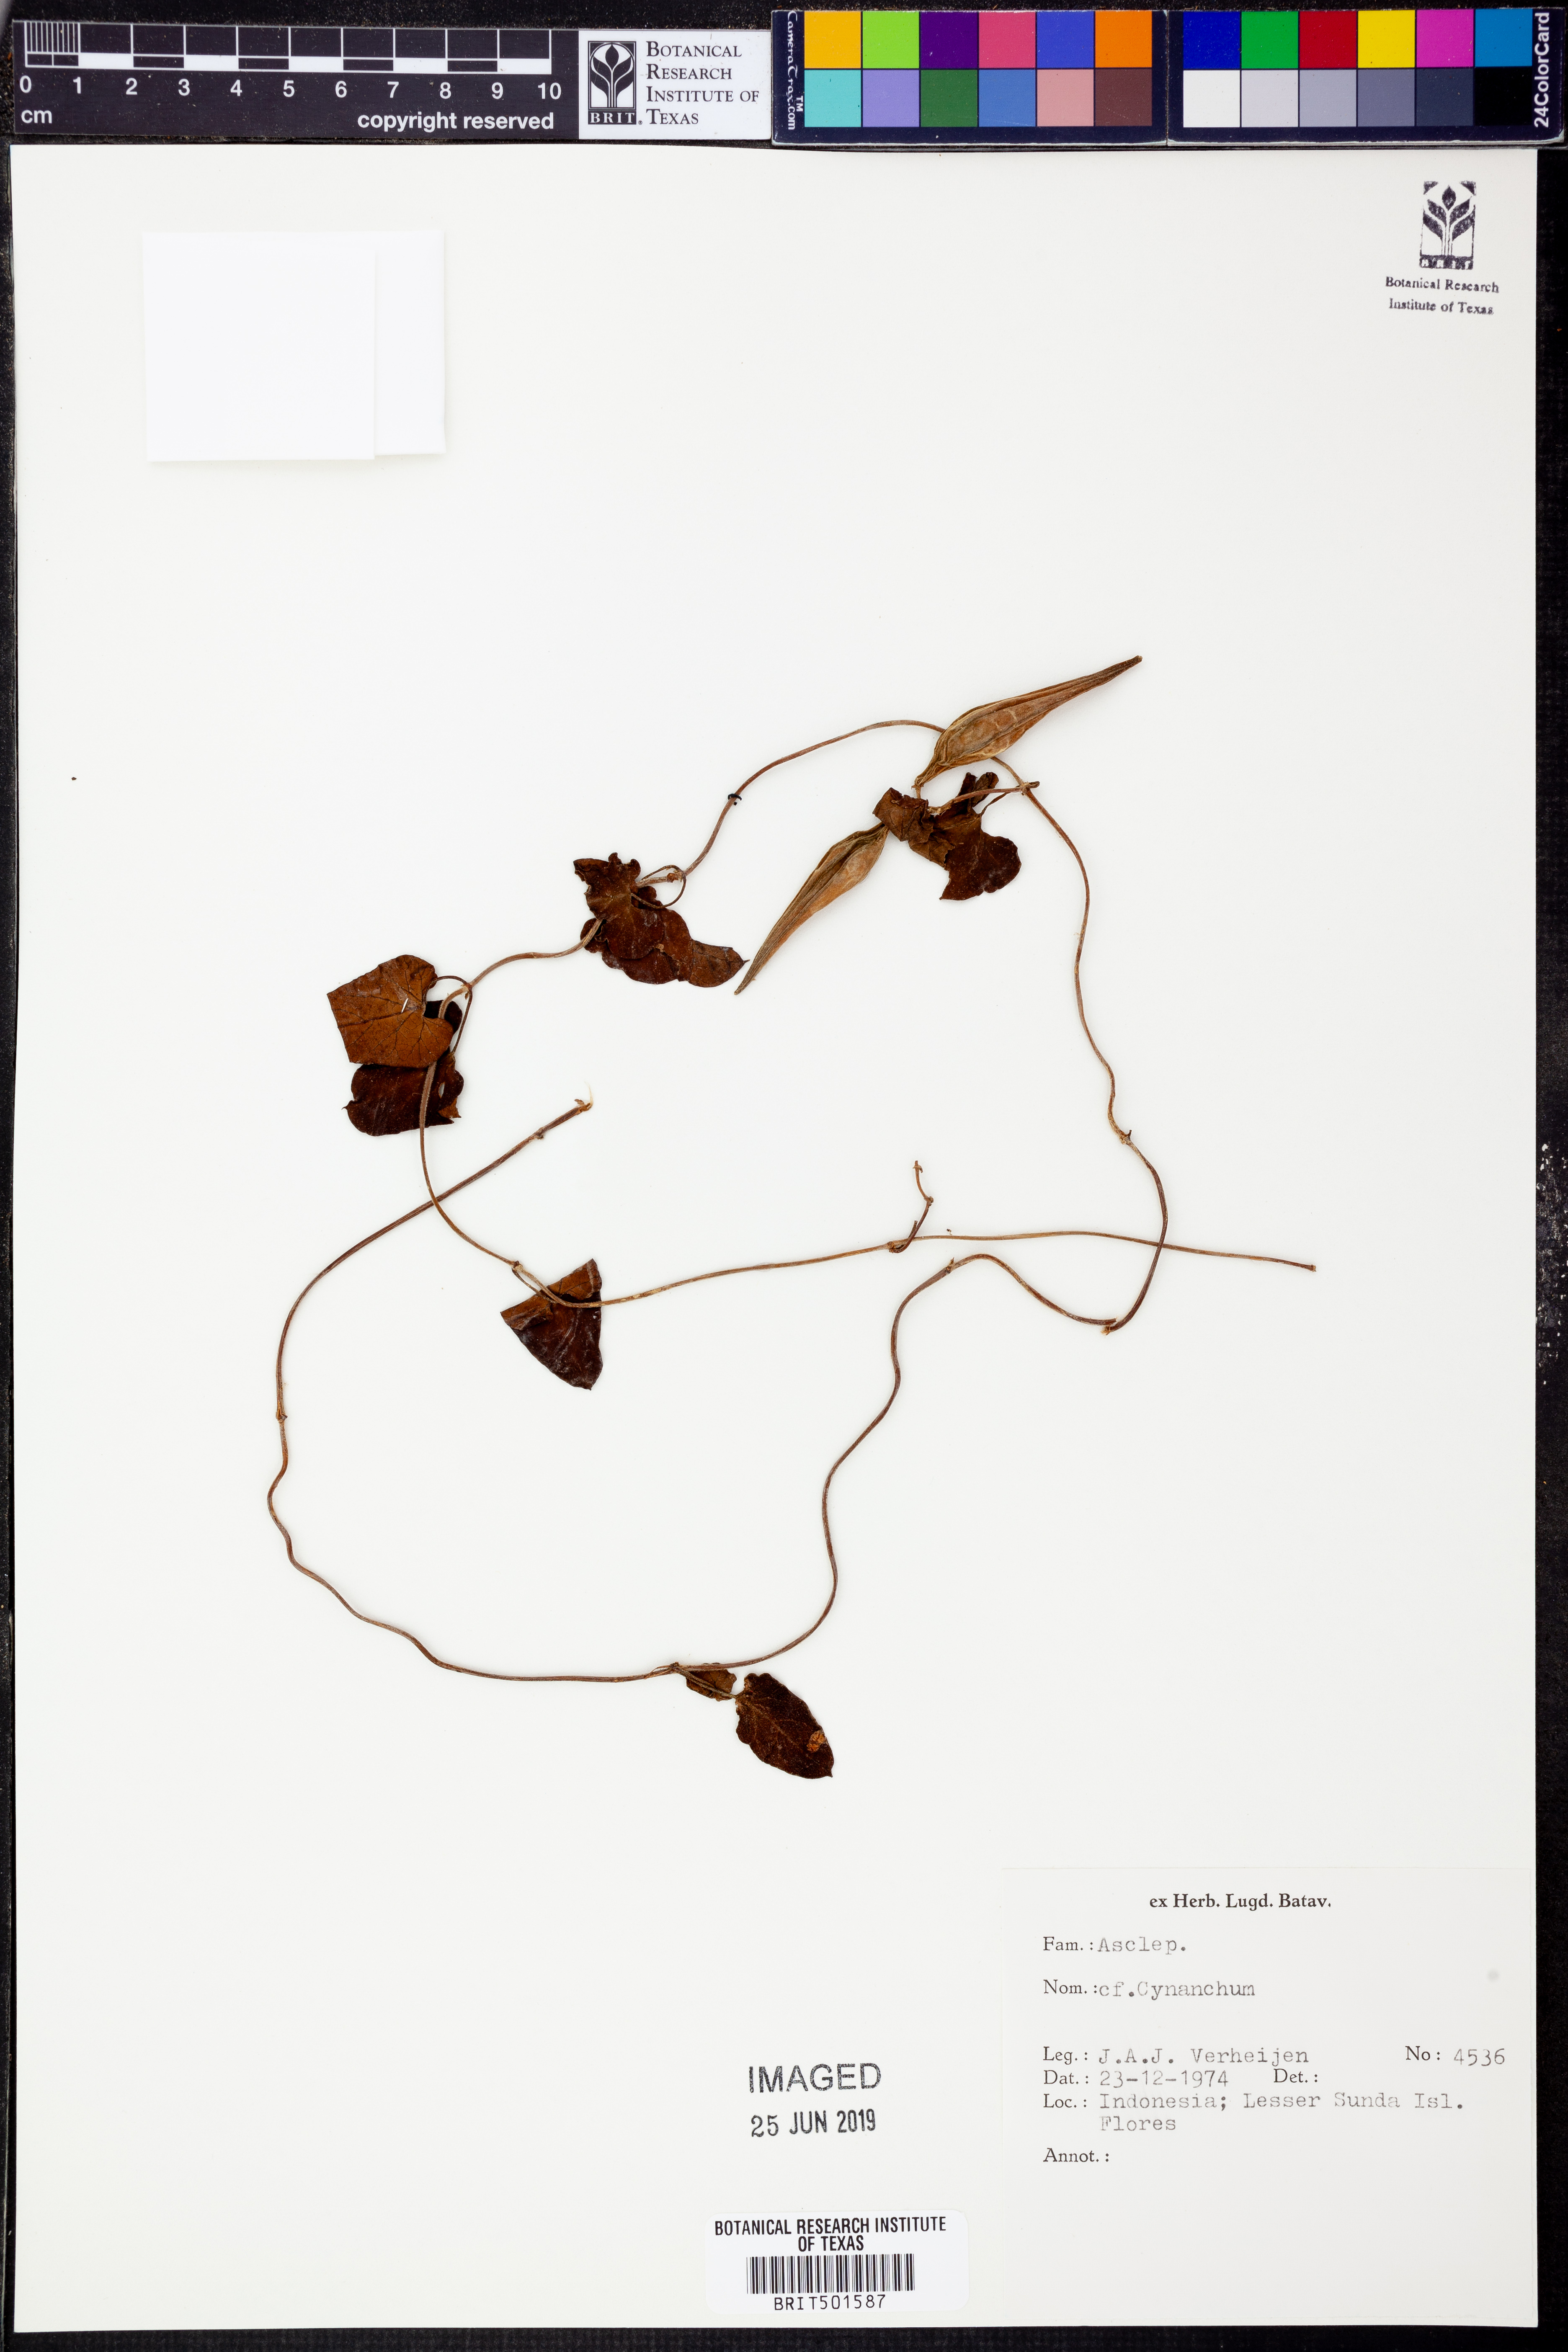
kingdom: Plantae
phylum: Tracheophyta
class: Magnoliopsida
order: Gentianales
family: Apocynaceae
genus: Cynanchum
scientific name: Cynanchum
